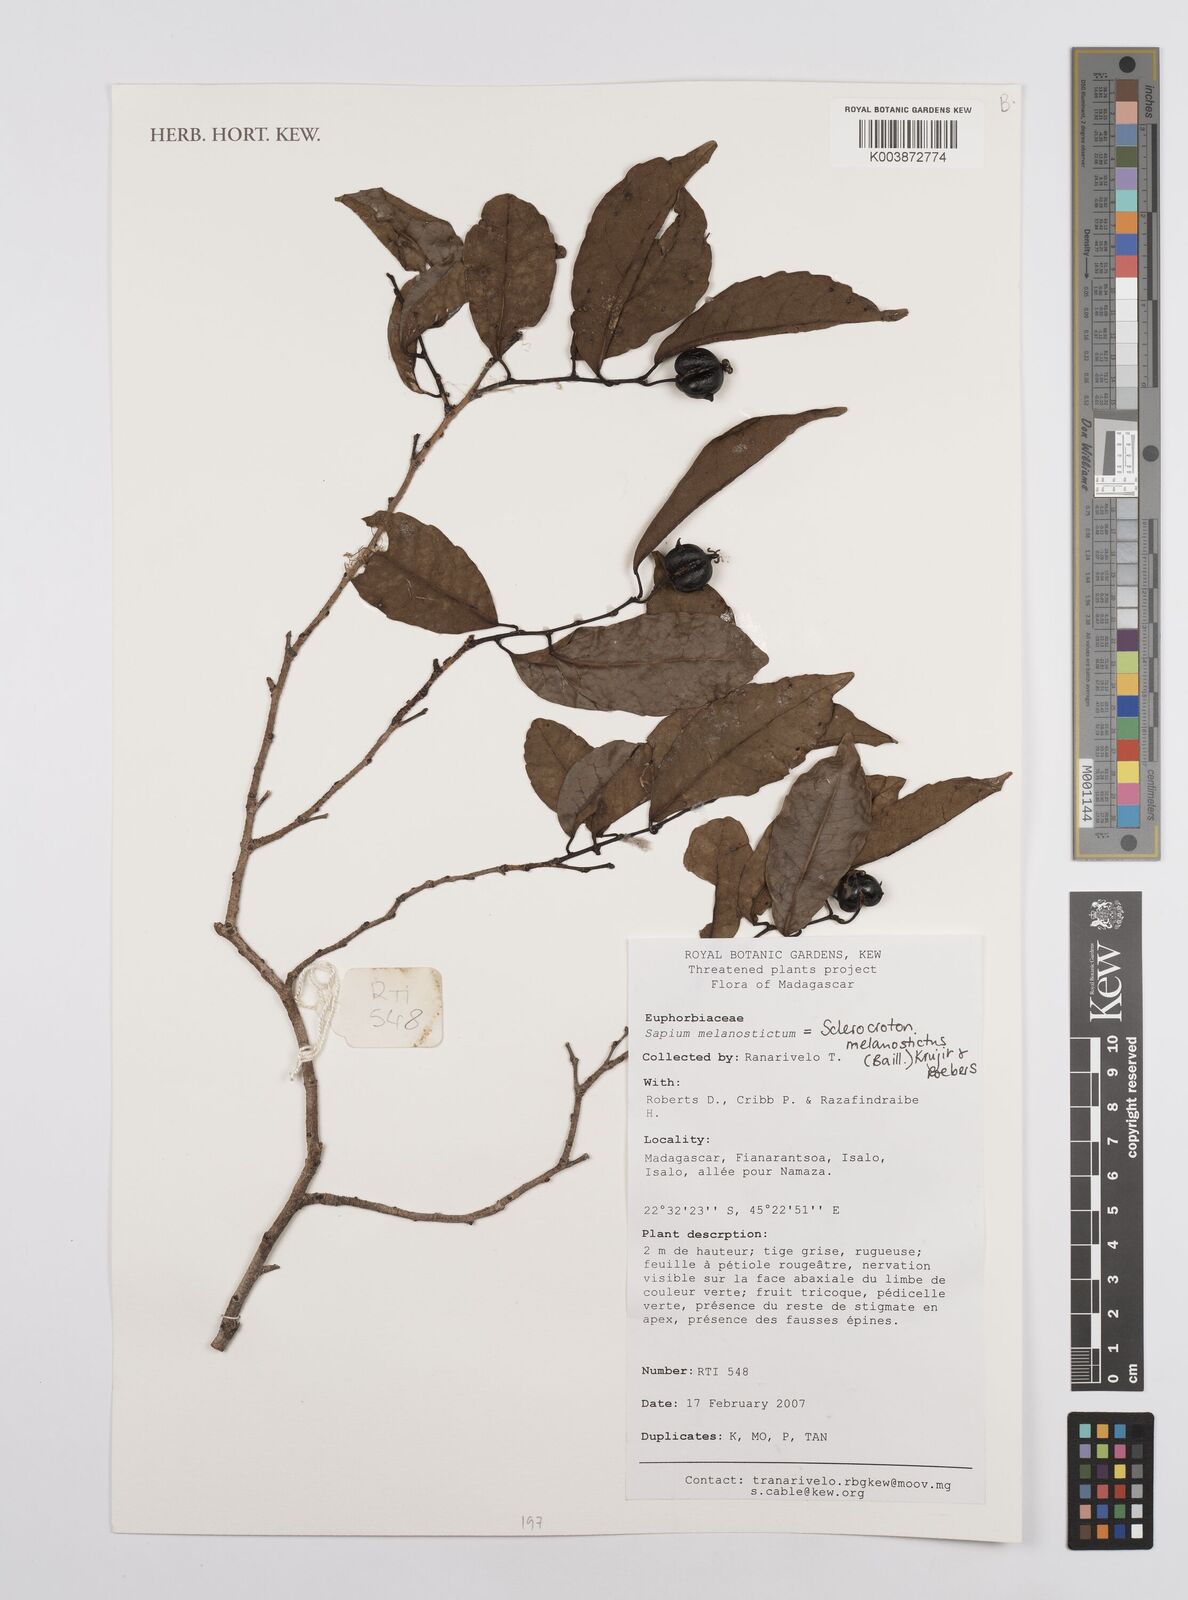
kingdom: Plantae
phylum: Tracheophyta
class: Magnoliopsida
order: Malpighiales
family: Euphorbiaceae
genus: Sclerocroton
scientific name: Sclerocroton melanostictus
